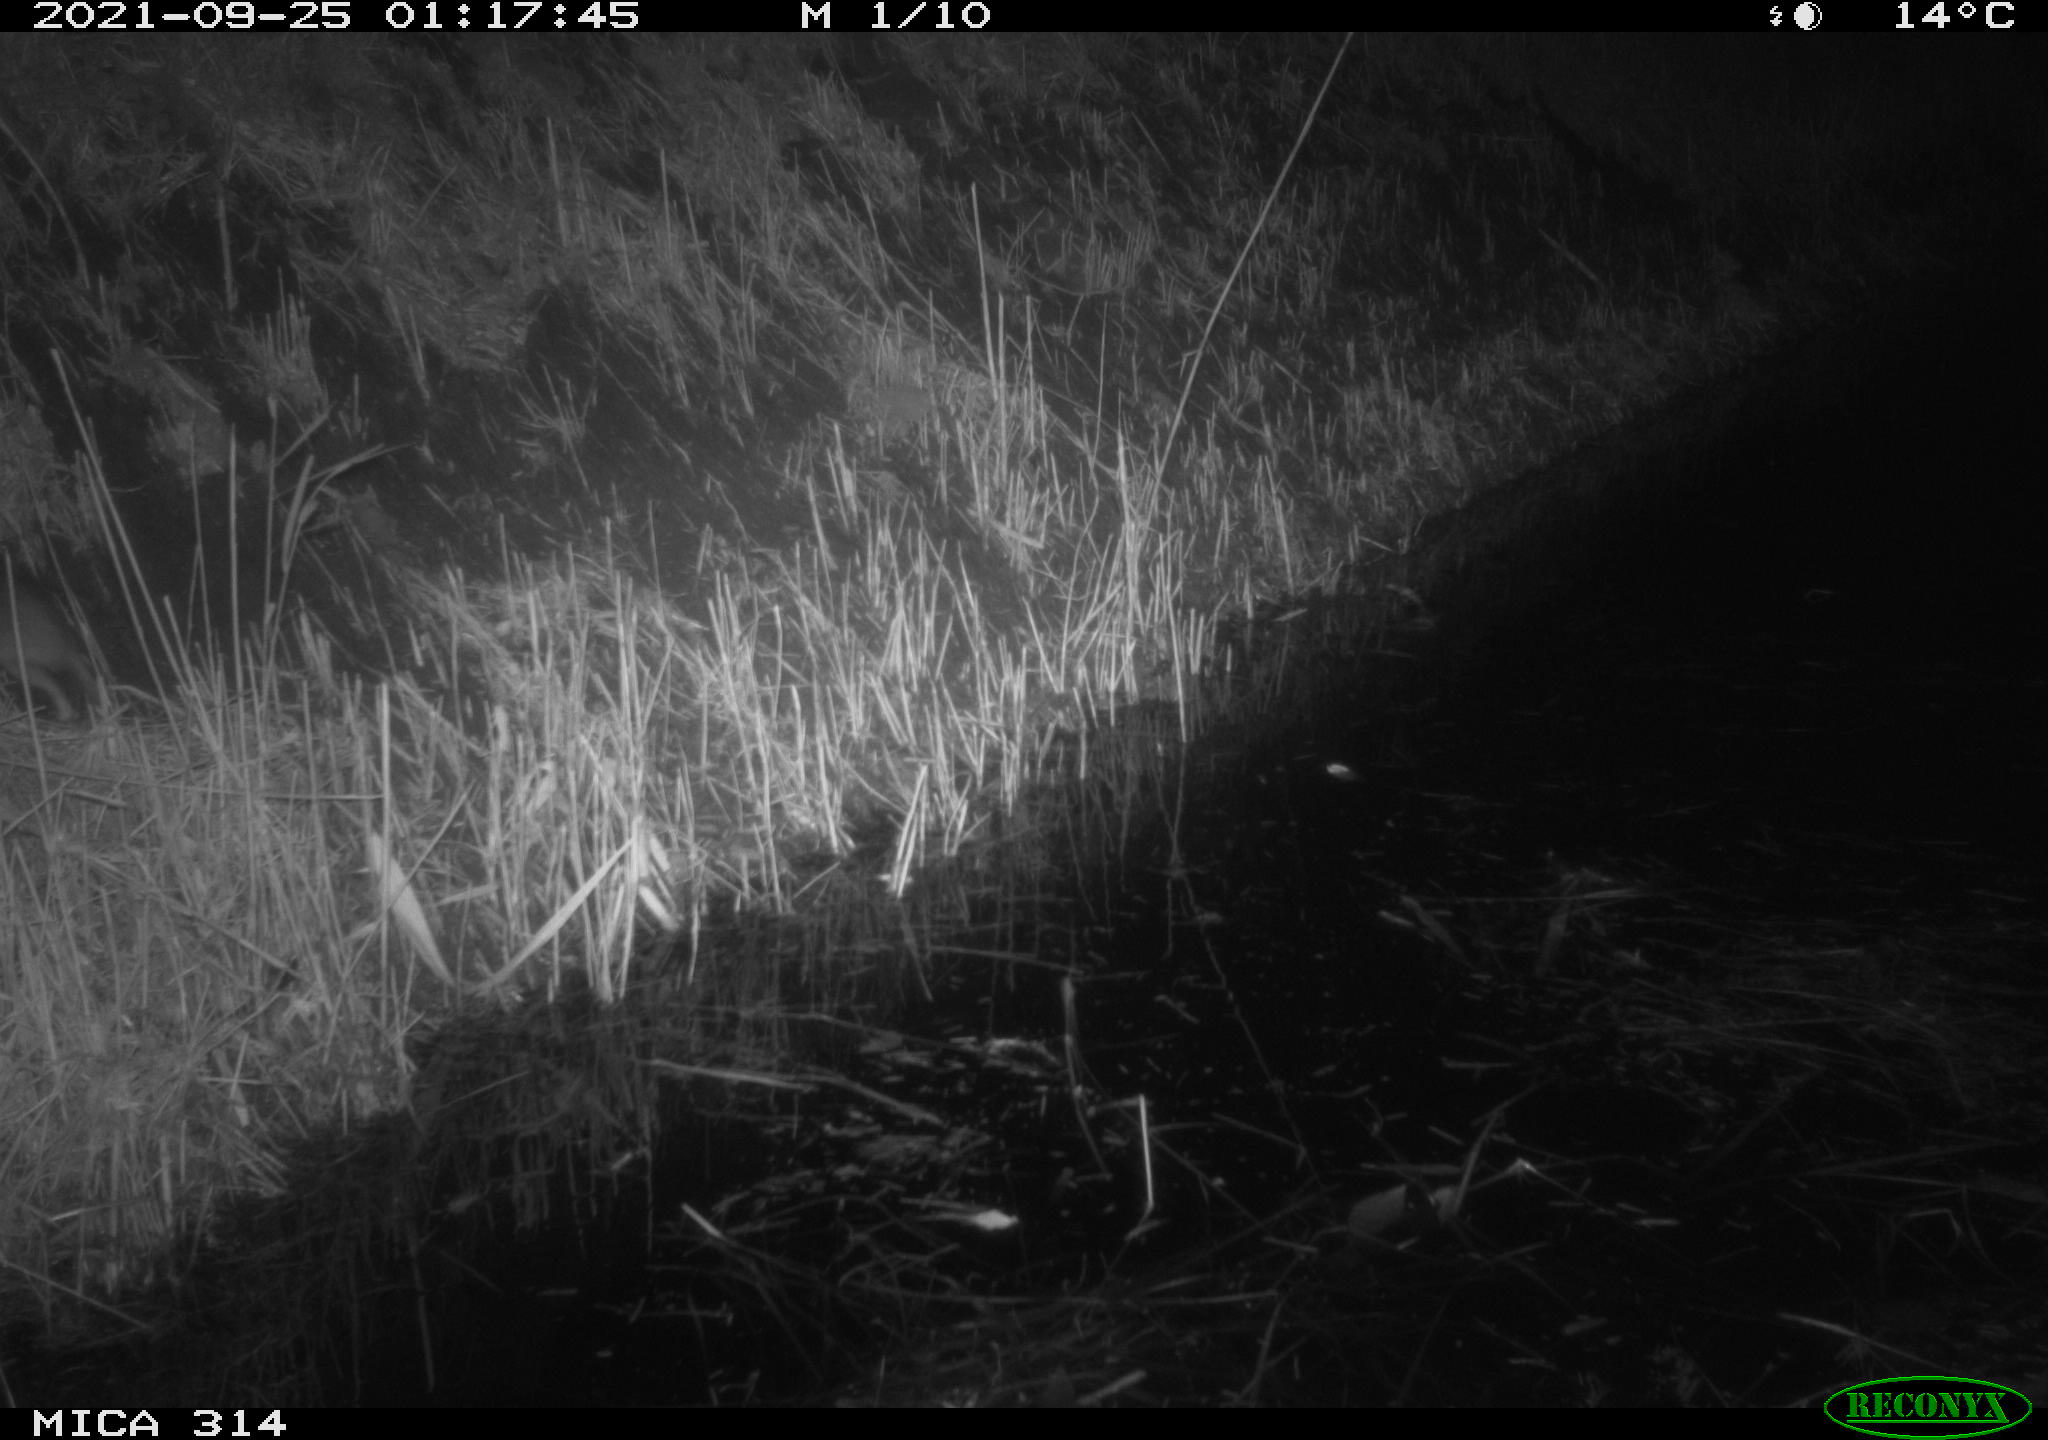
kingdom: Animalia
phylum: Chordata
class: Mammalia
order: Rodentia
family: Muridae
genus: Rattus
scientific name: Rattus norvegicus
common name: Brown rat
